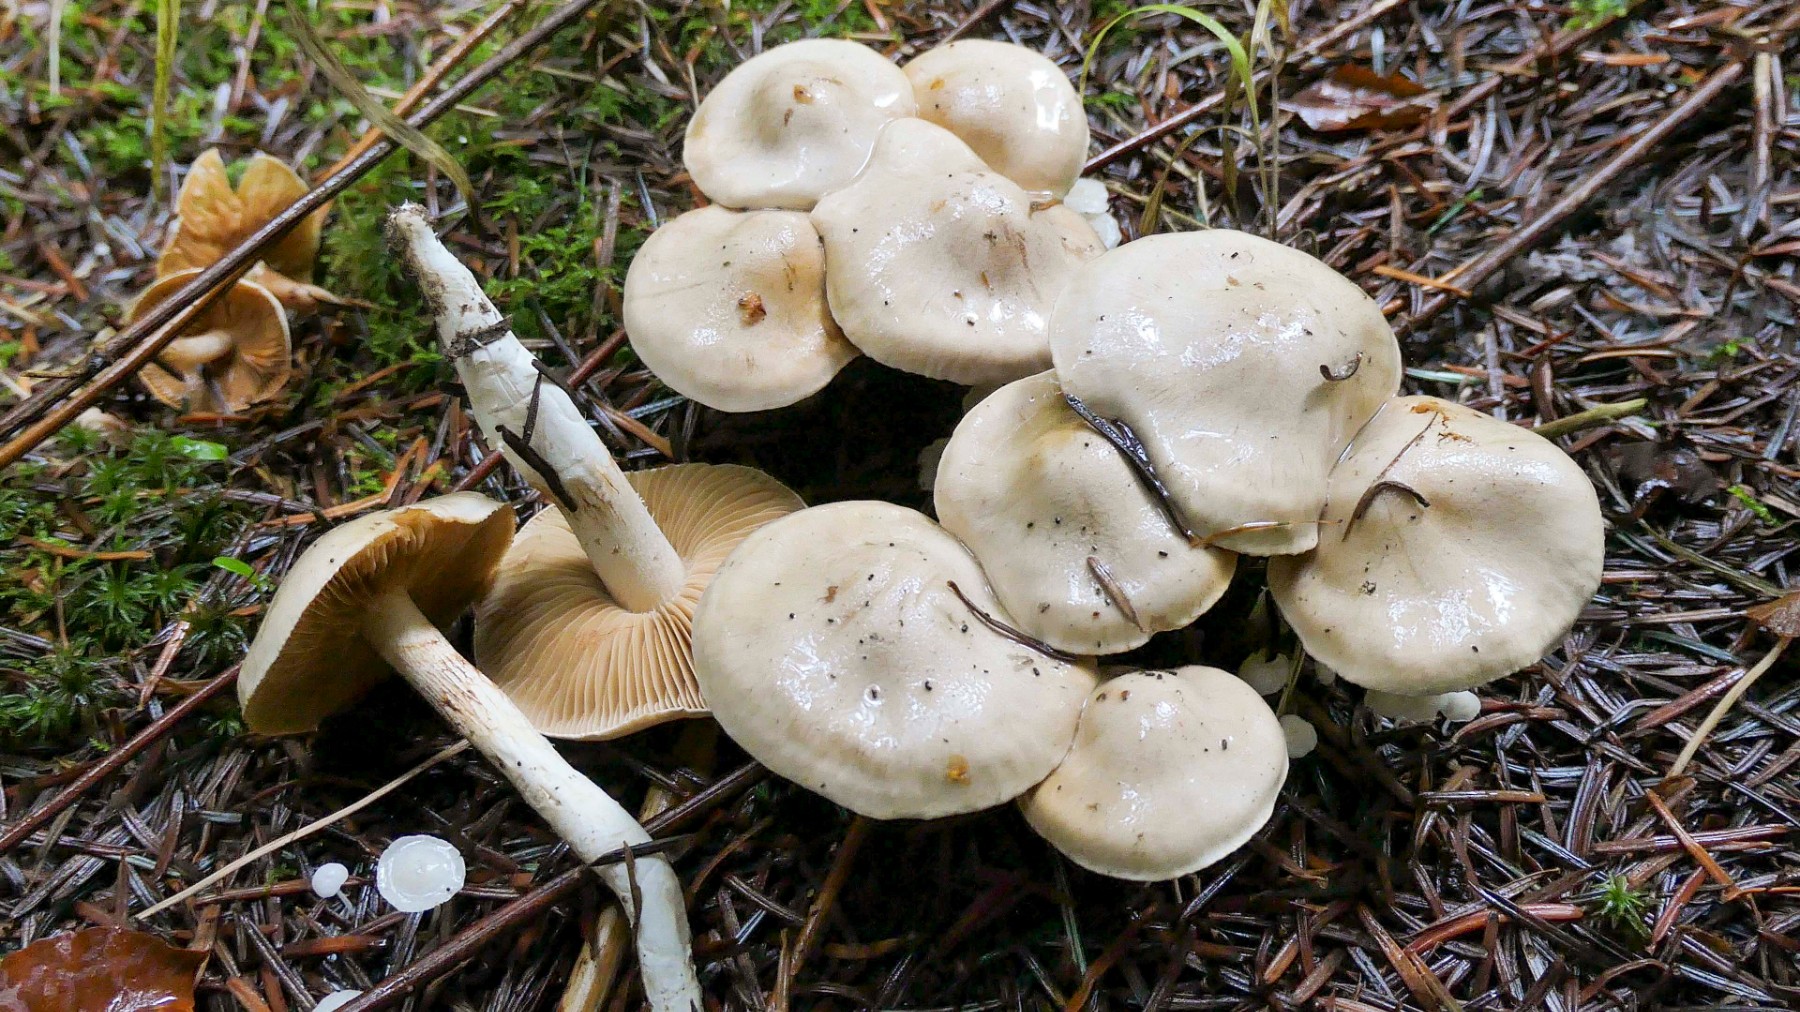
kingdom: Fungi
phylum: Basidiomycota
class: Agaricomycetes
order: Agaricales
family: Cortinariaceae
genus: Thaxterogaster
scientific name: Thaxterogaster barbatus
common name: elfenbens-slørhat
